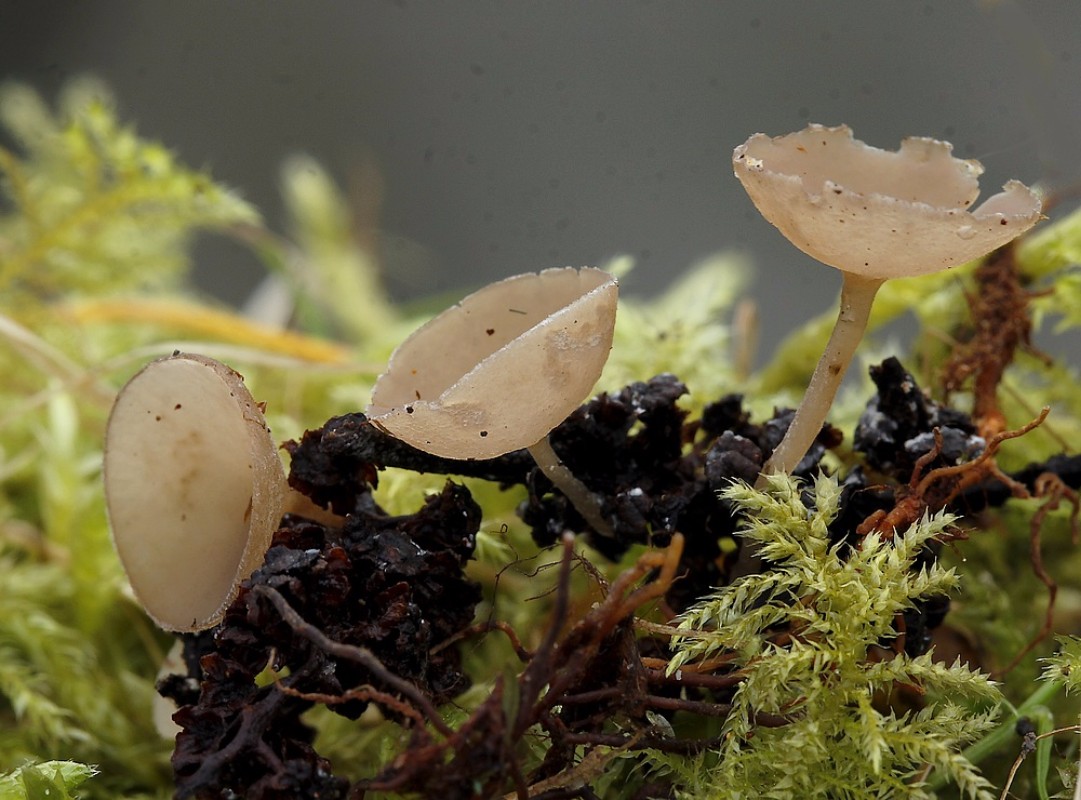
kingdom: Fungi
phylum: Ascomycota
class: Leotiomycetes
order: Helotiales
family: Sclerotiniaceae
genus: Ciboria
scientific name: Ciboria amentacea
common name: ellerakle-knoldskive
